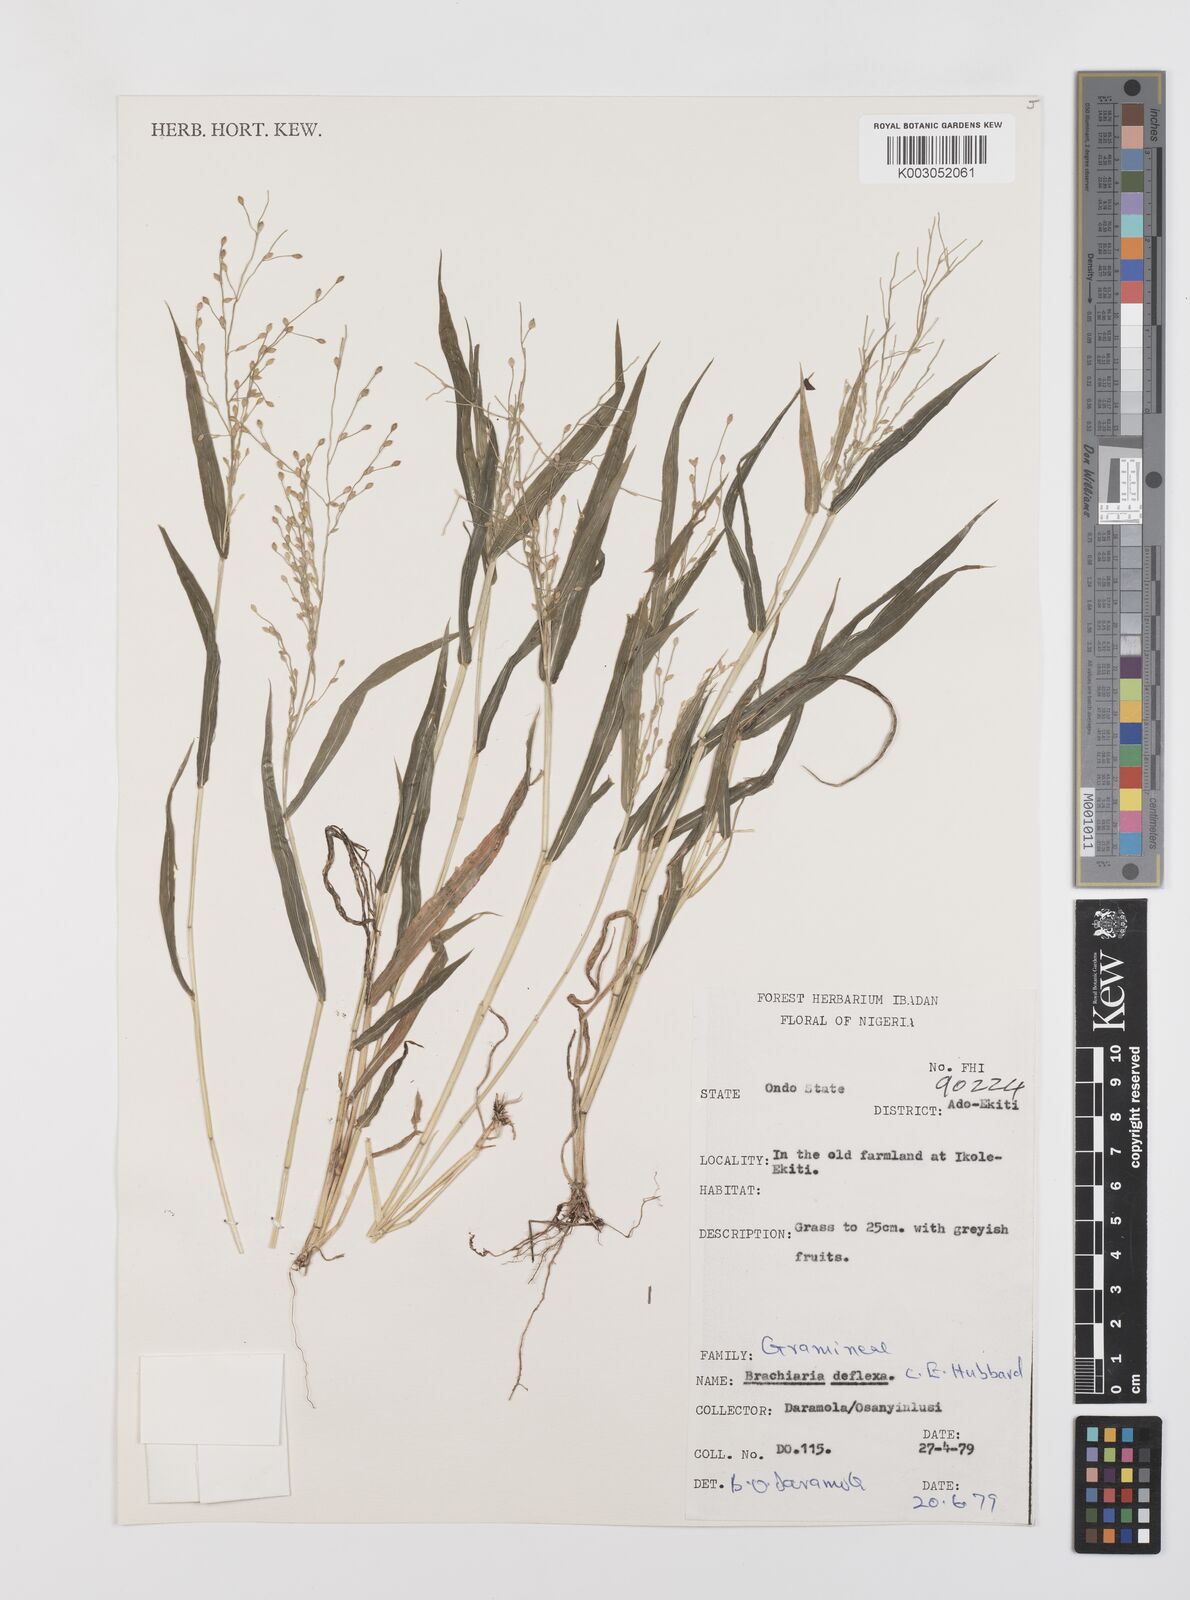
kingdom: Plantae
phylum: Tracheophyta
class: Liliopsida
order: Poales
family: Poaceae
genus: Urochloa
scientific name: Urochloa deflexa
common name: Guinea millet
